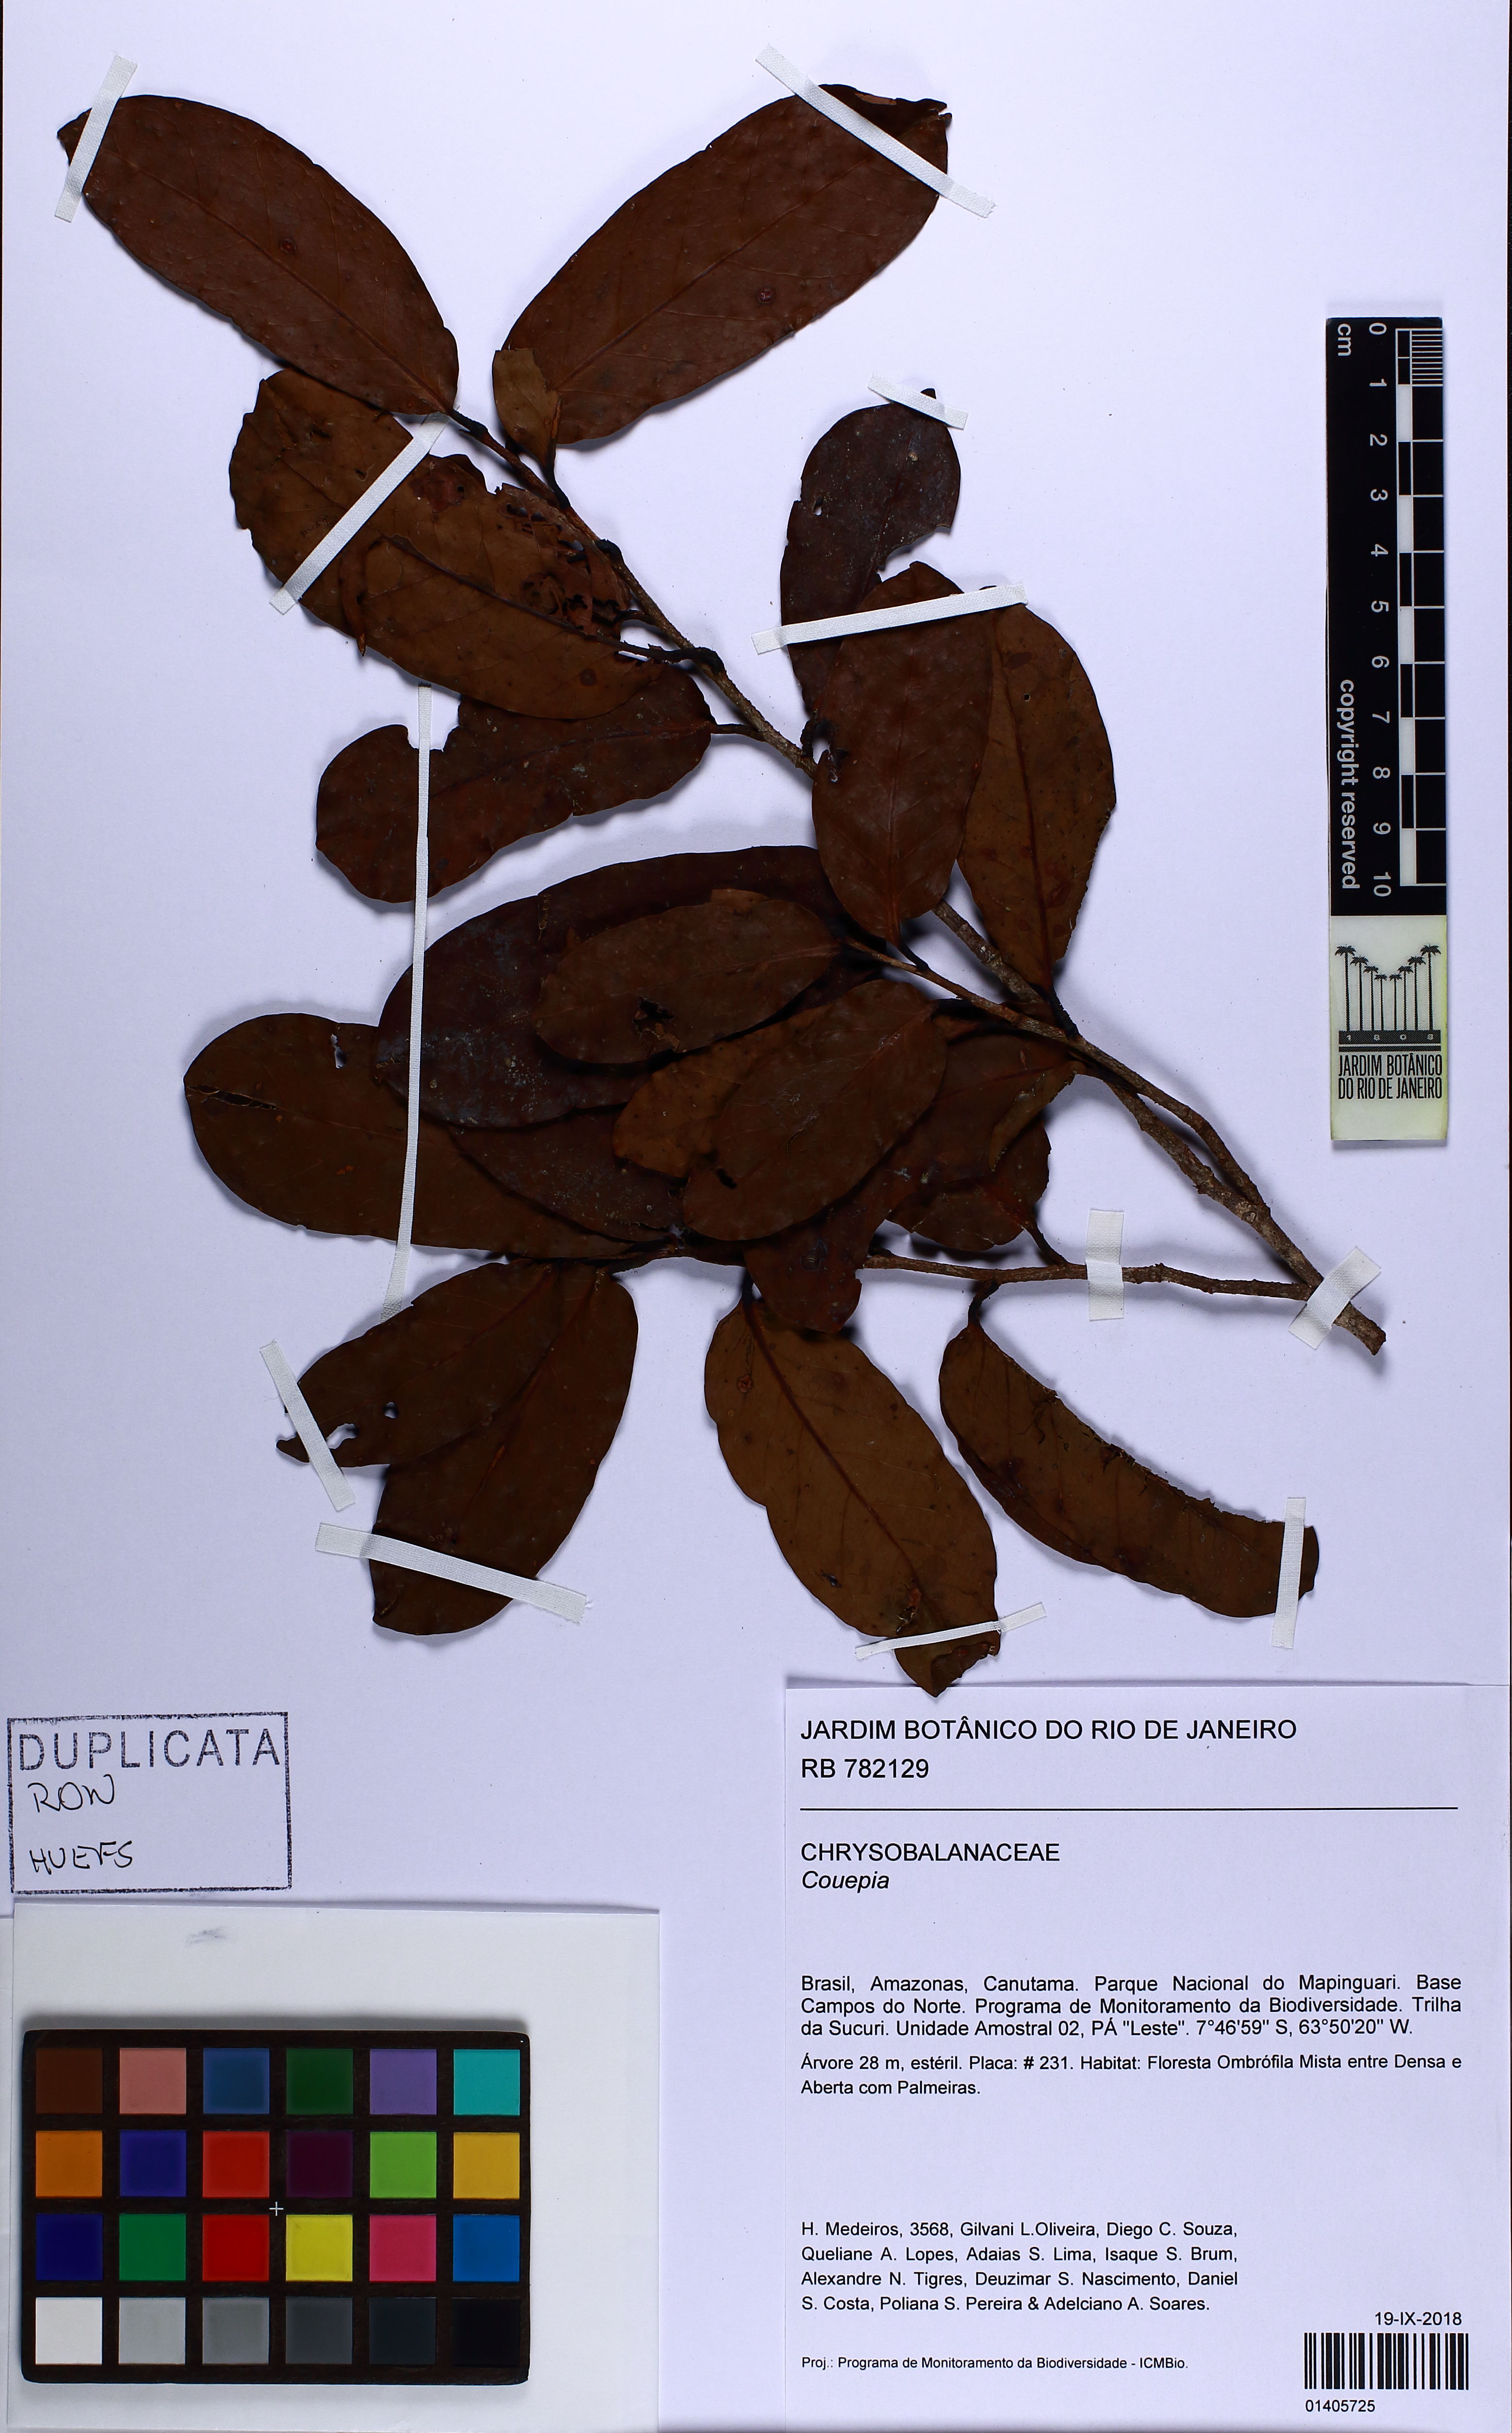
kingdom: Plantae
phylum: Tracheophyta
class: Magnoliopsida
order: Malpighiales
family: Chrysobalanaceae
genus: Couepia
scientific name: Couepia
